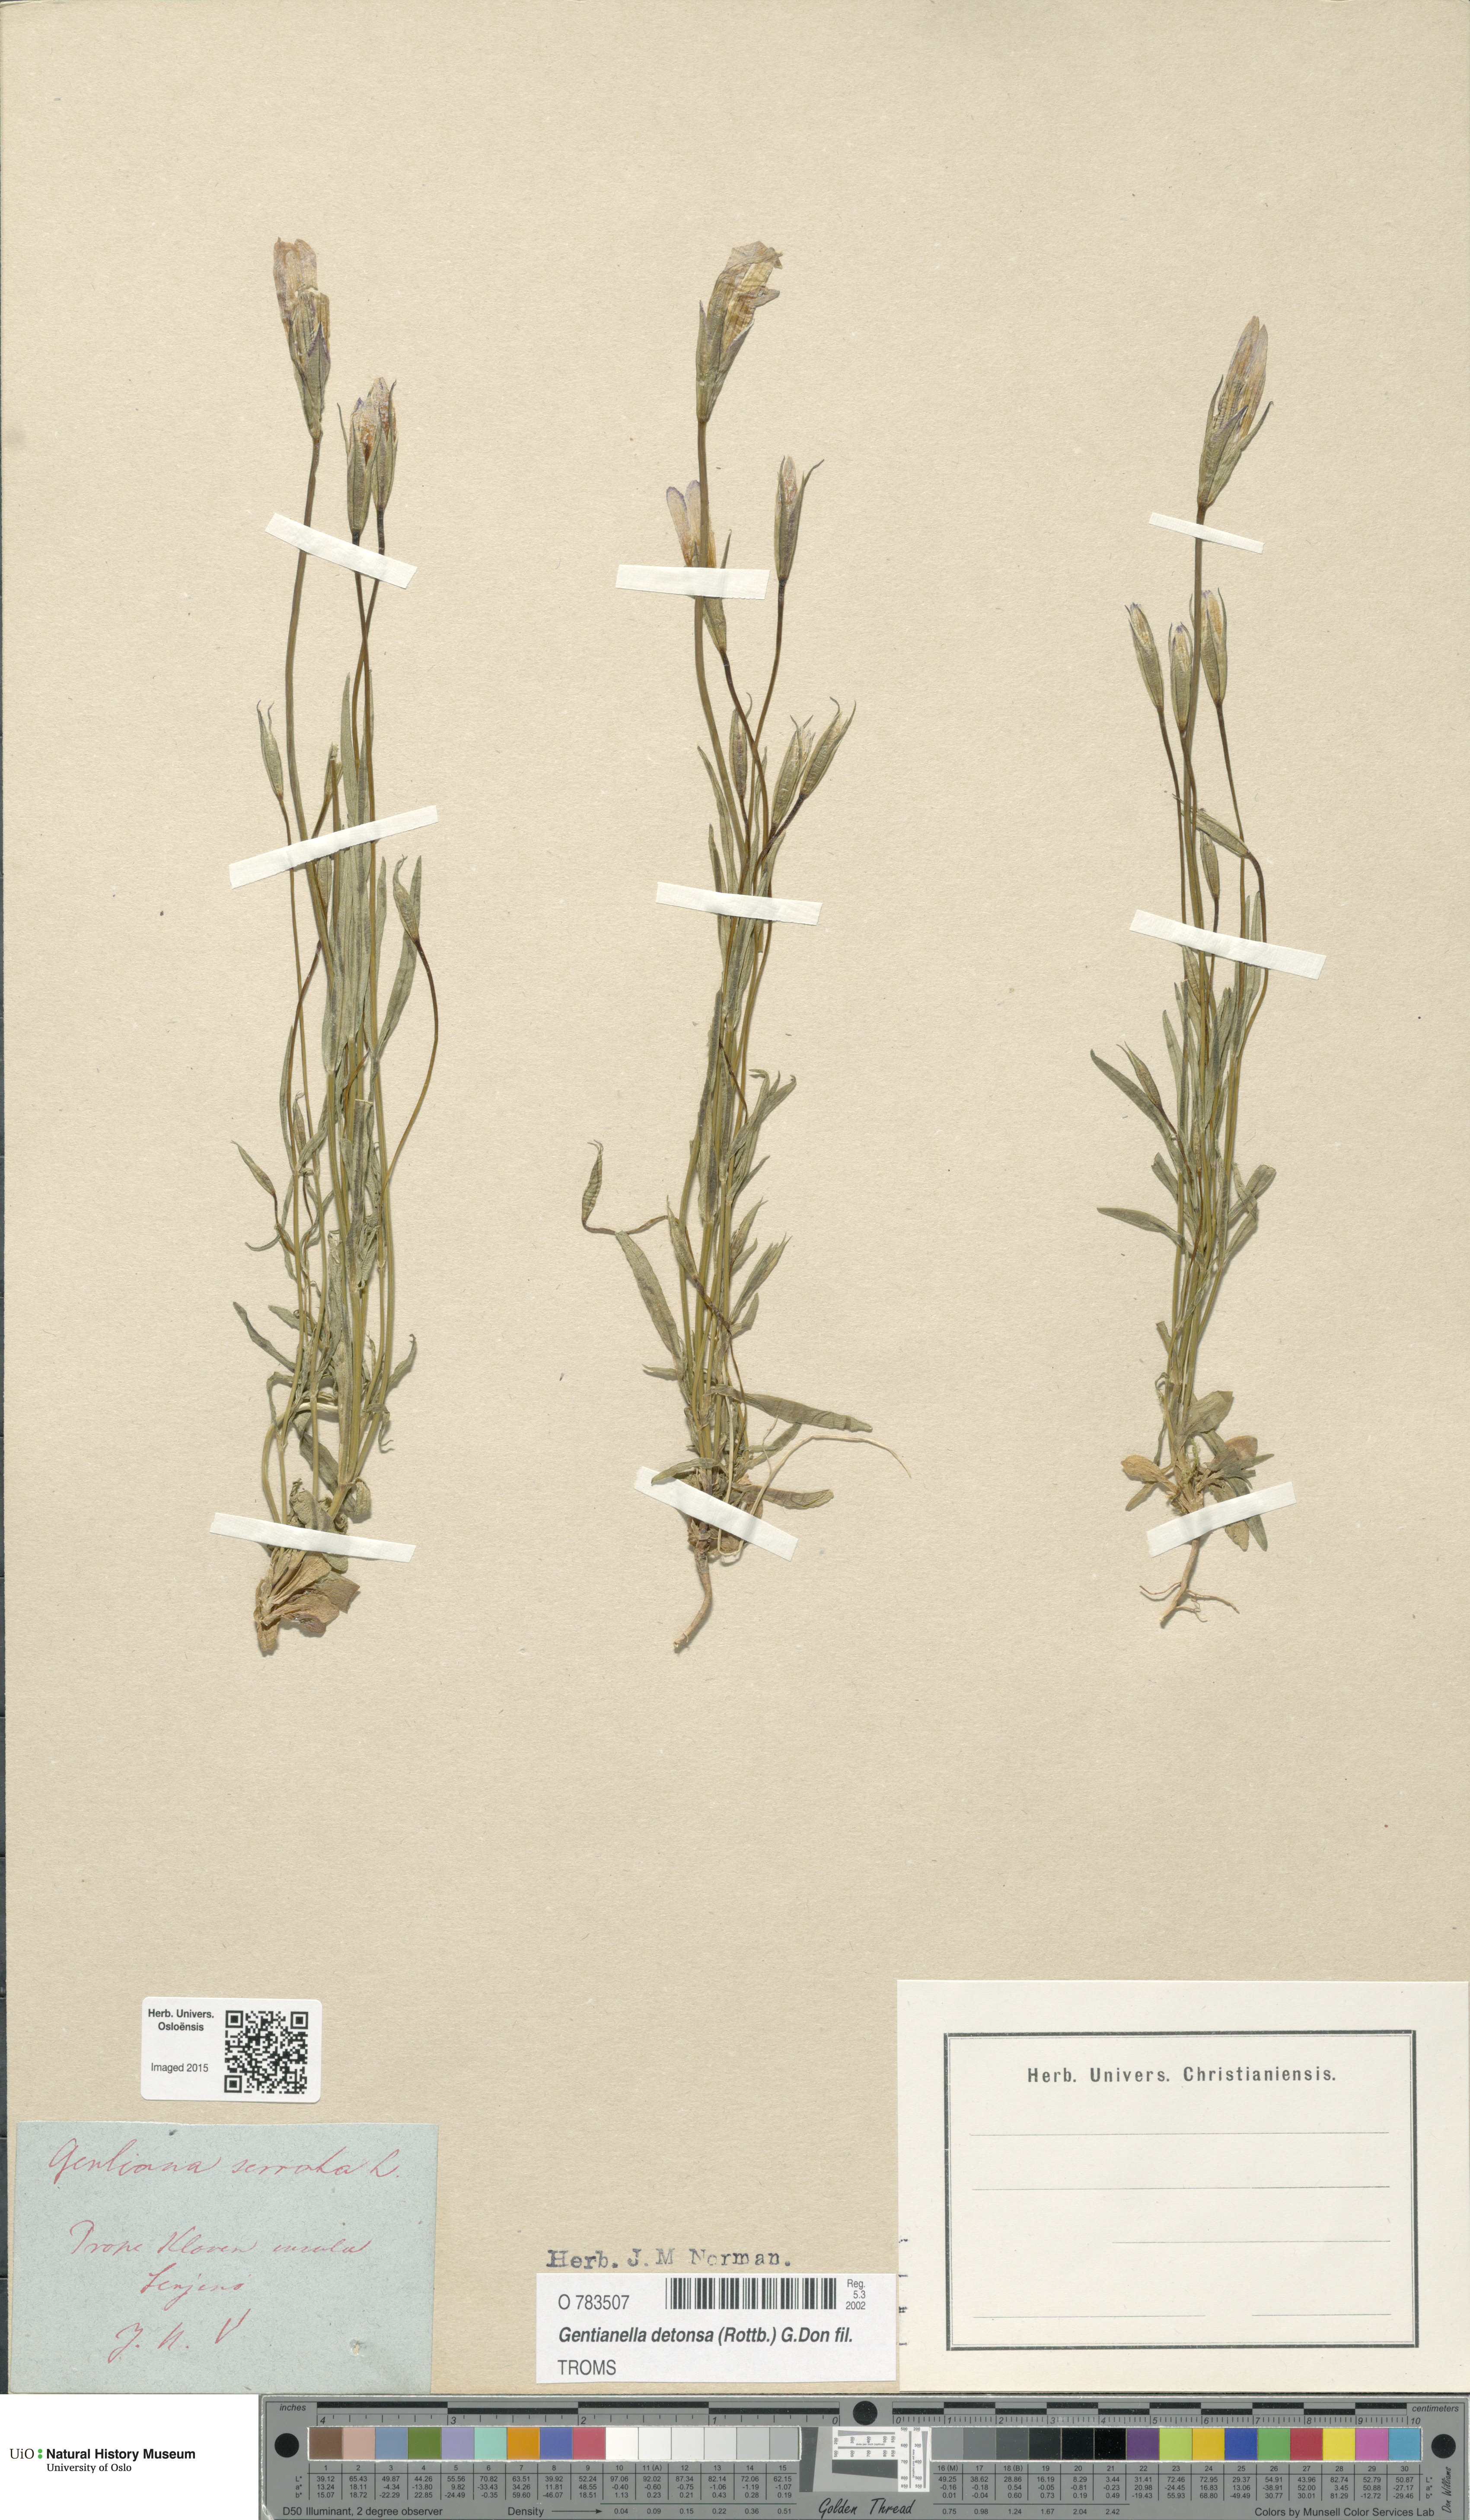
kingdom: Plantae
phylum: Tracheophyta
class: Magnoliopsida
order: Gentianales
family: Gentianaceae
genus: Gentianopsis
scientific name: Gentianopsis detonsa
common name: Fringed-gentian
